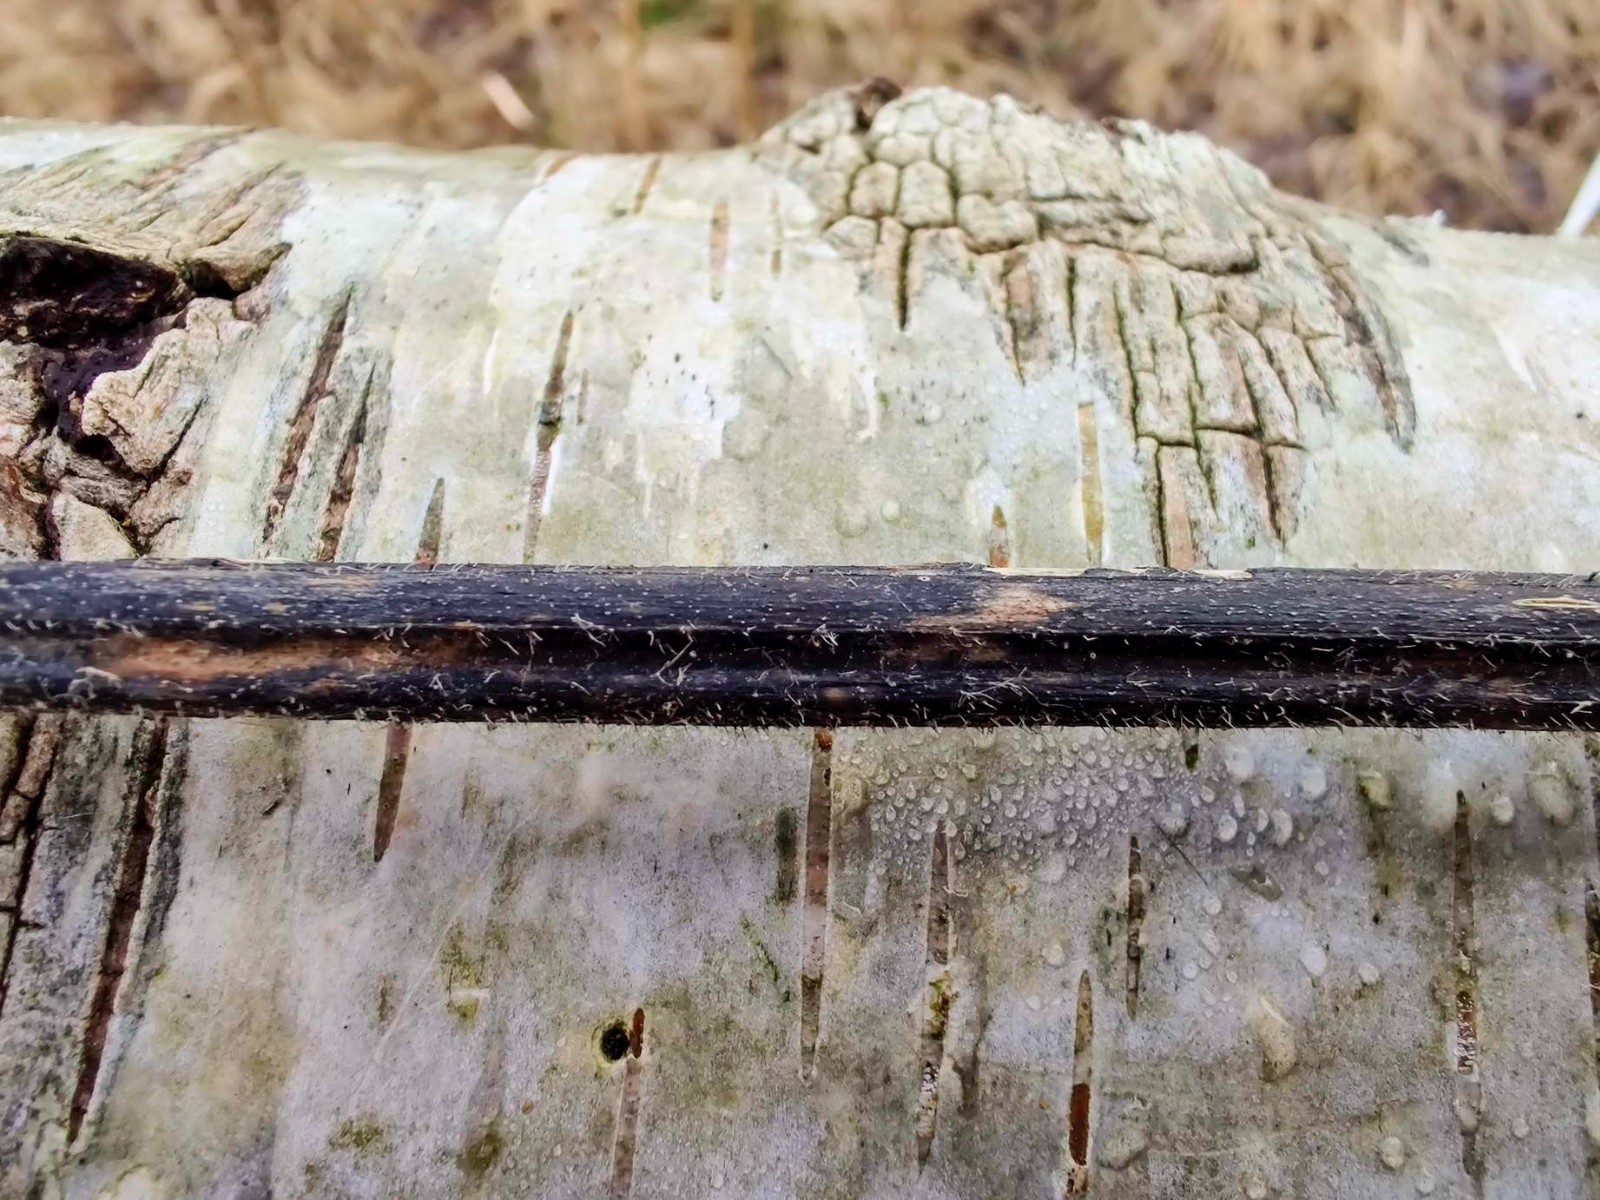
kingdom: Fungi
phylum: Ascomycota
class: Sordariomycetes
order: Diaporthales
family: Diaporthaceae
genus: Diaporthopsis
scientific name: Diaporthopsis urticae
